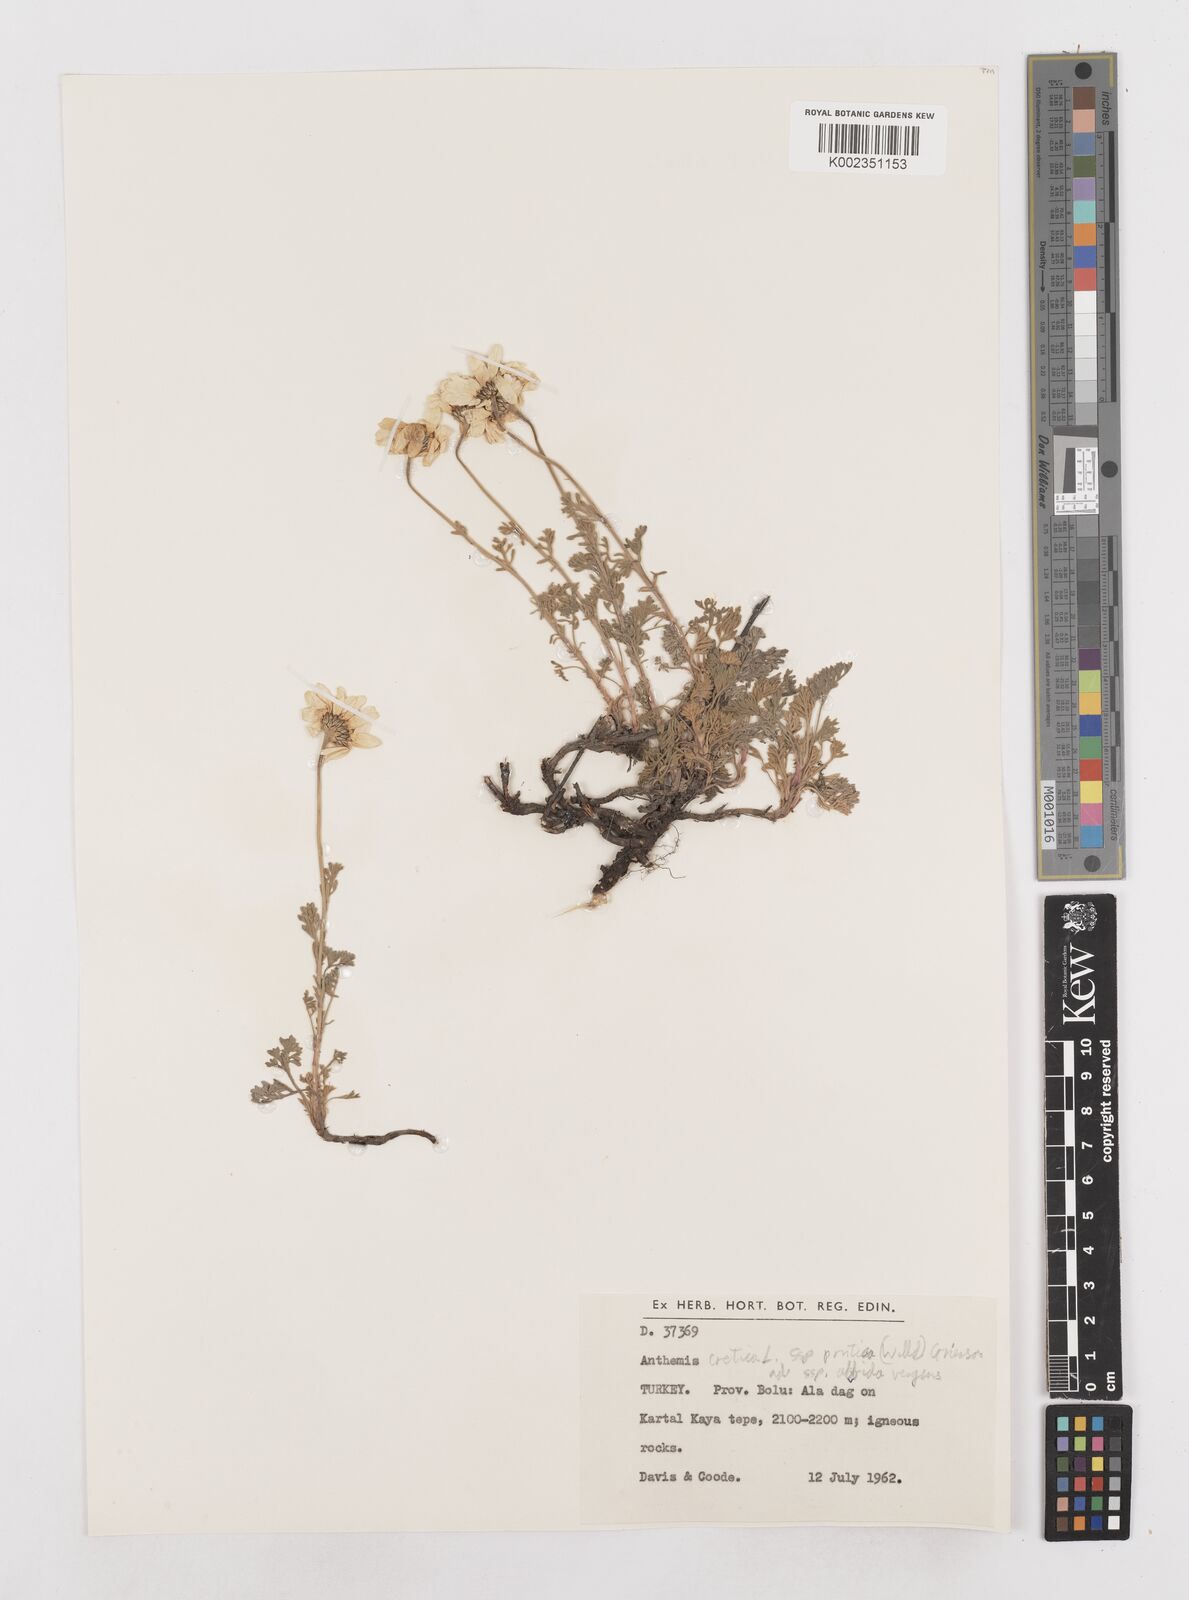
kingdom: Plantae
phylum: Tracheophyta
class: Magnoliopsida
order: Asterales
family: Asteraceae
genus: Anthemis
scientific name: Anthemis cretica
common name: Mountain dog-daisy
